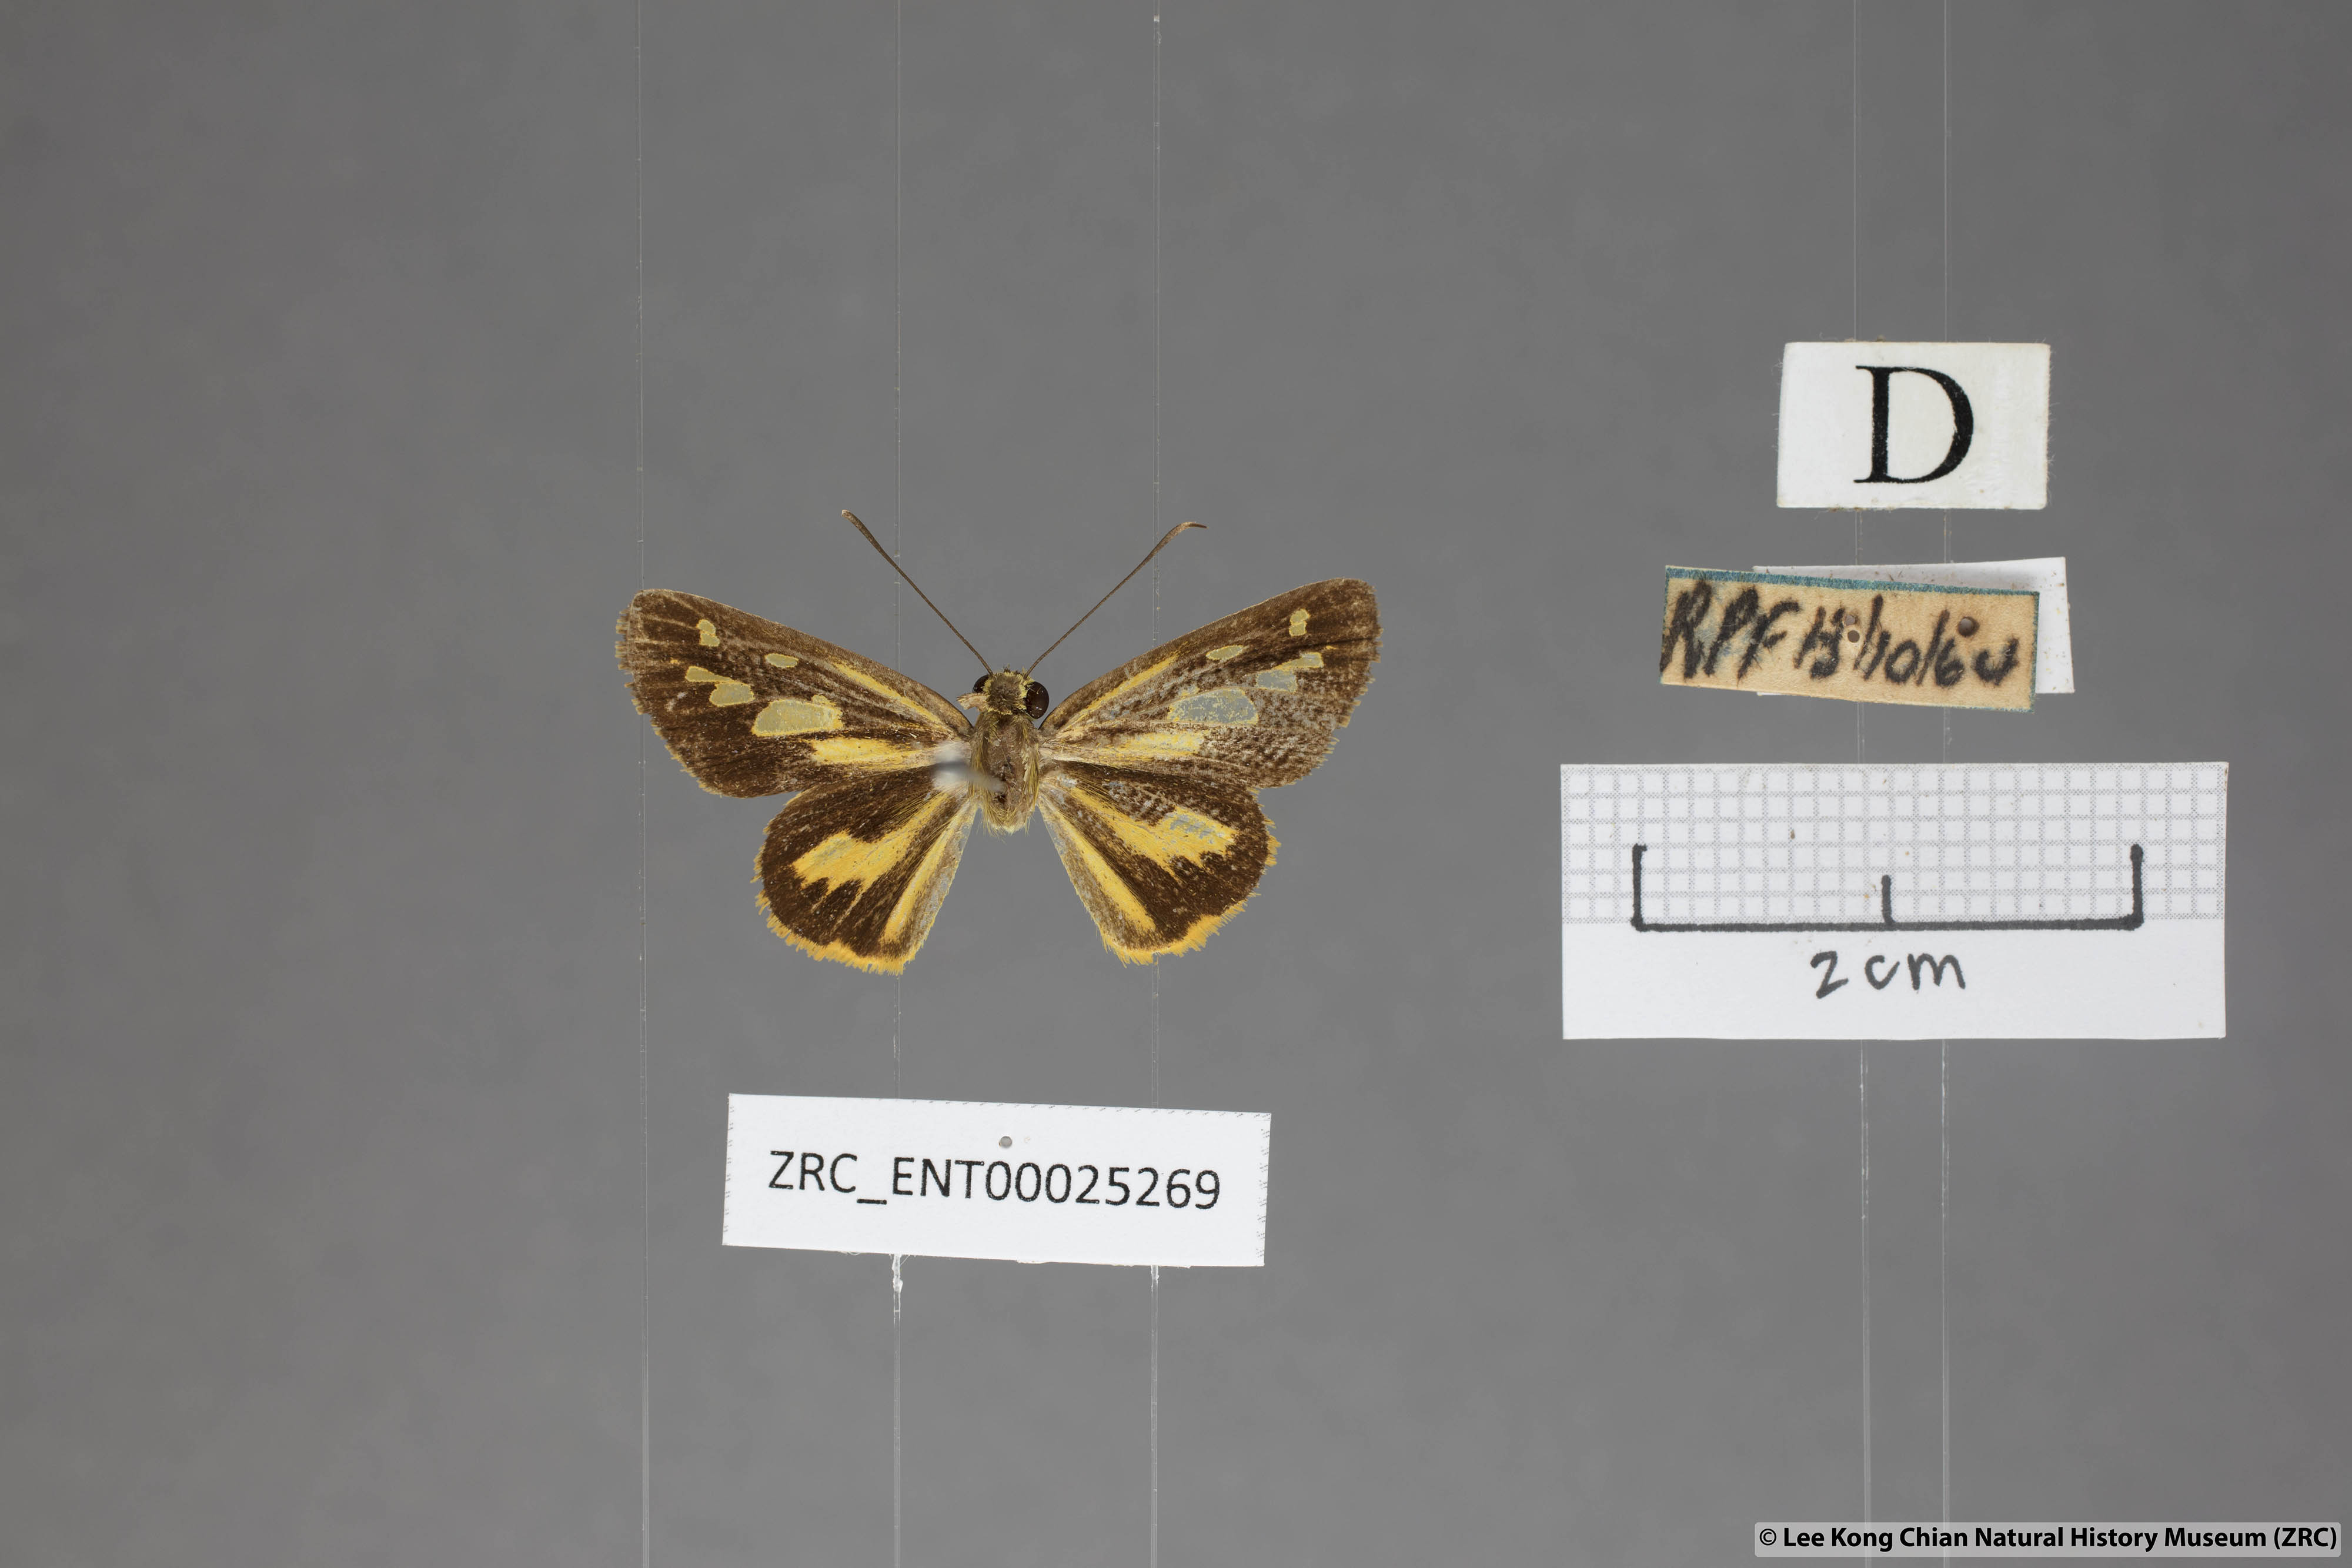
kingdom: Animalia
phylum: Arthropoda
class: Insecta
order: Lepidoptera
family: Hesperiidae
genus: Pyroneura
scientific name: Pyroneura helena
